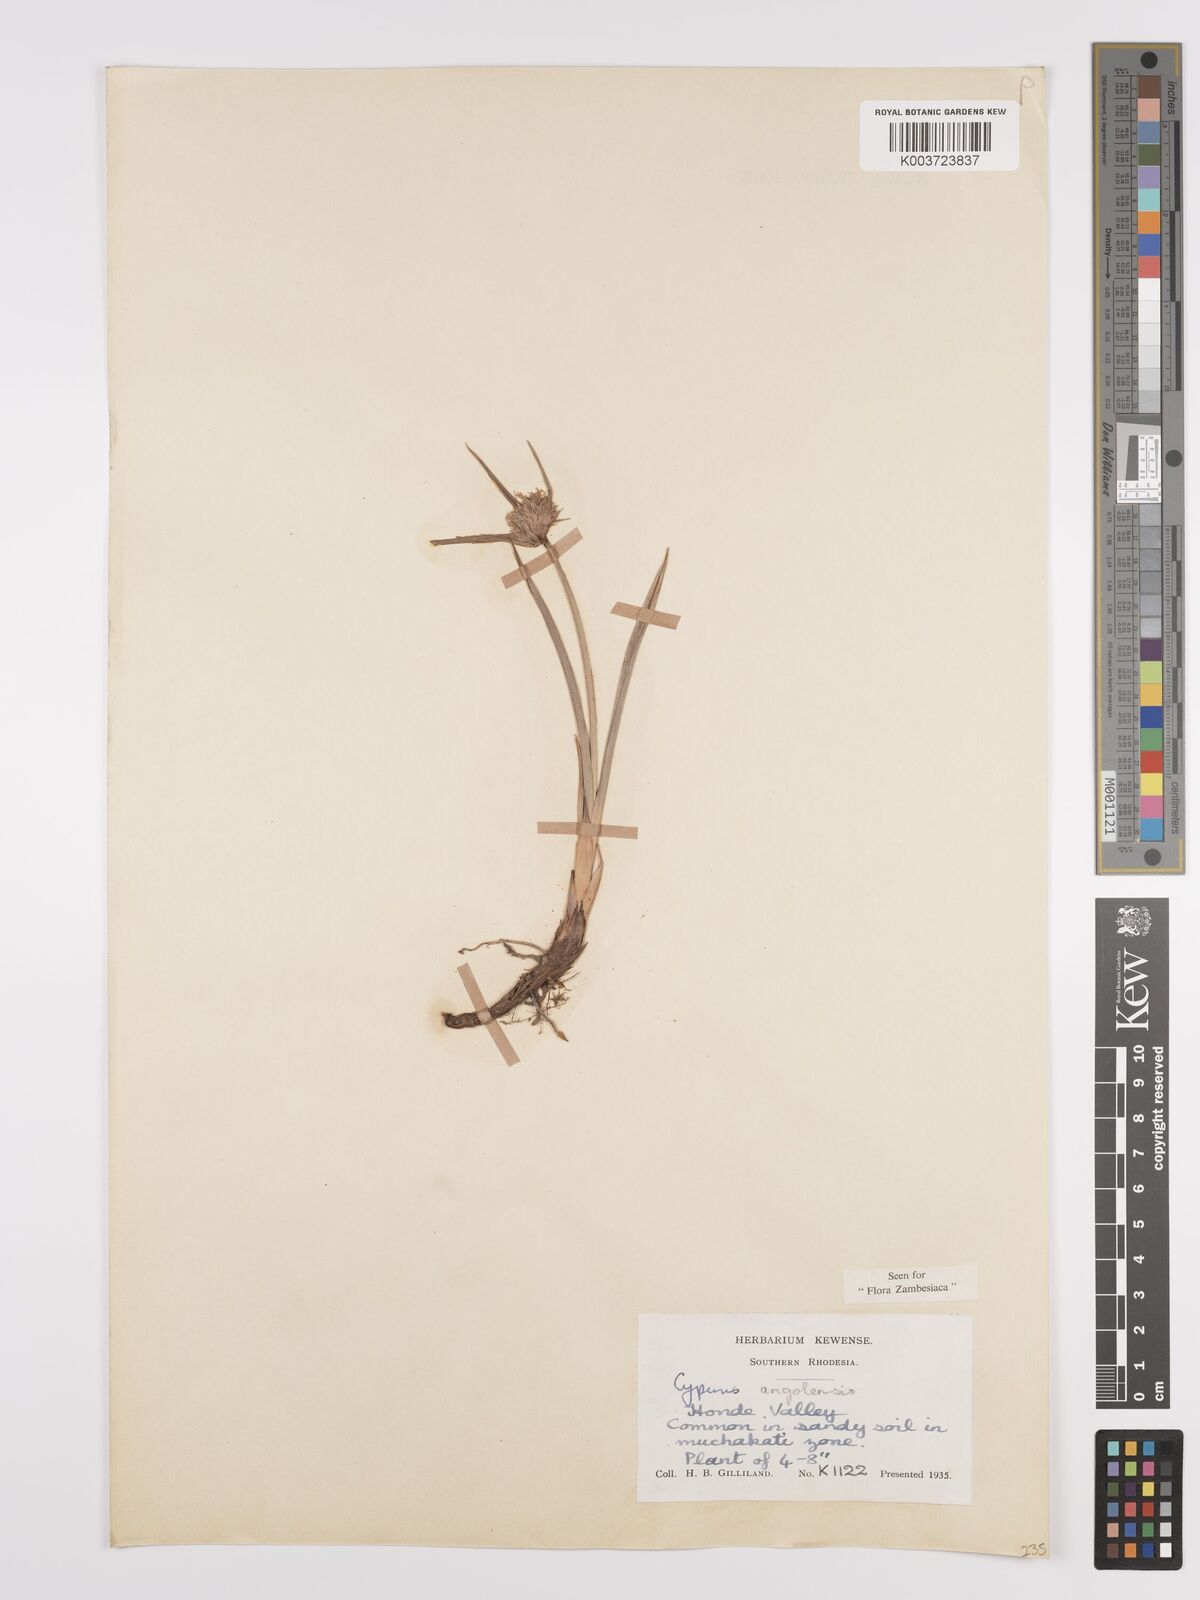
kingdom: Plantae
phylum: Tracheophyta
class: Liliopsida
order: Poales
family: Cyperaceae
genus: Cyperus
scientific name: Cyperus angolensis
